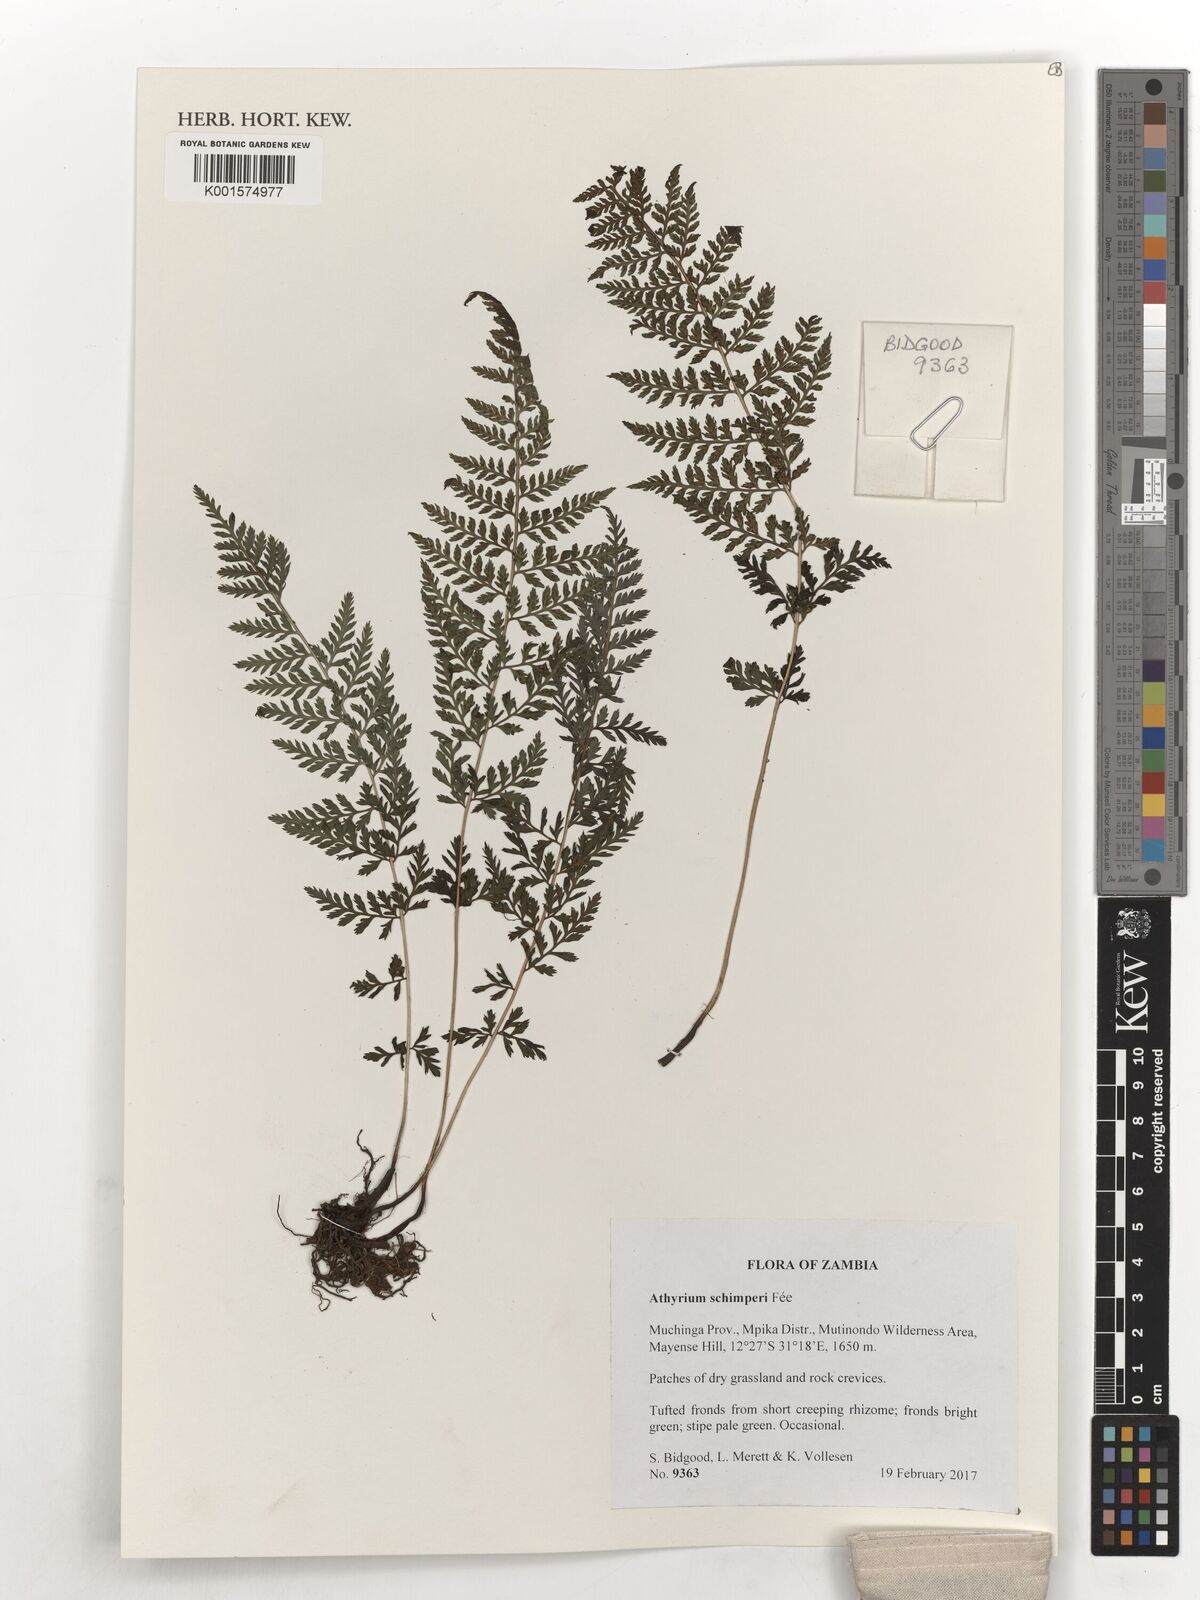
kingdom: Plantae
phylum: Tracheophyta
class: Polypodiopsida
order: Polypodiales
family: Athyriaceae
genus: Athyrium
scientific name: Athyrium schimperi
